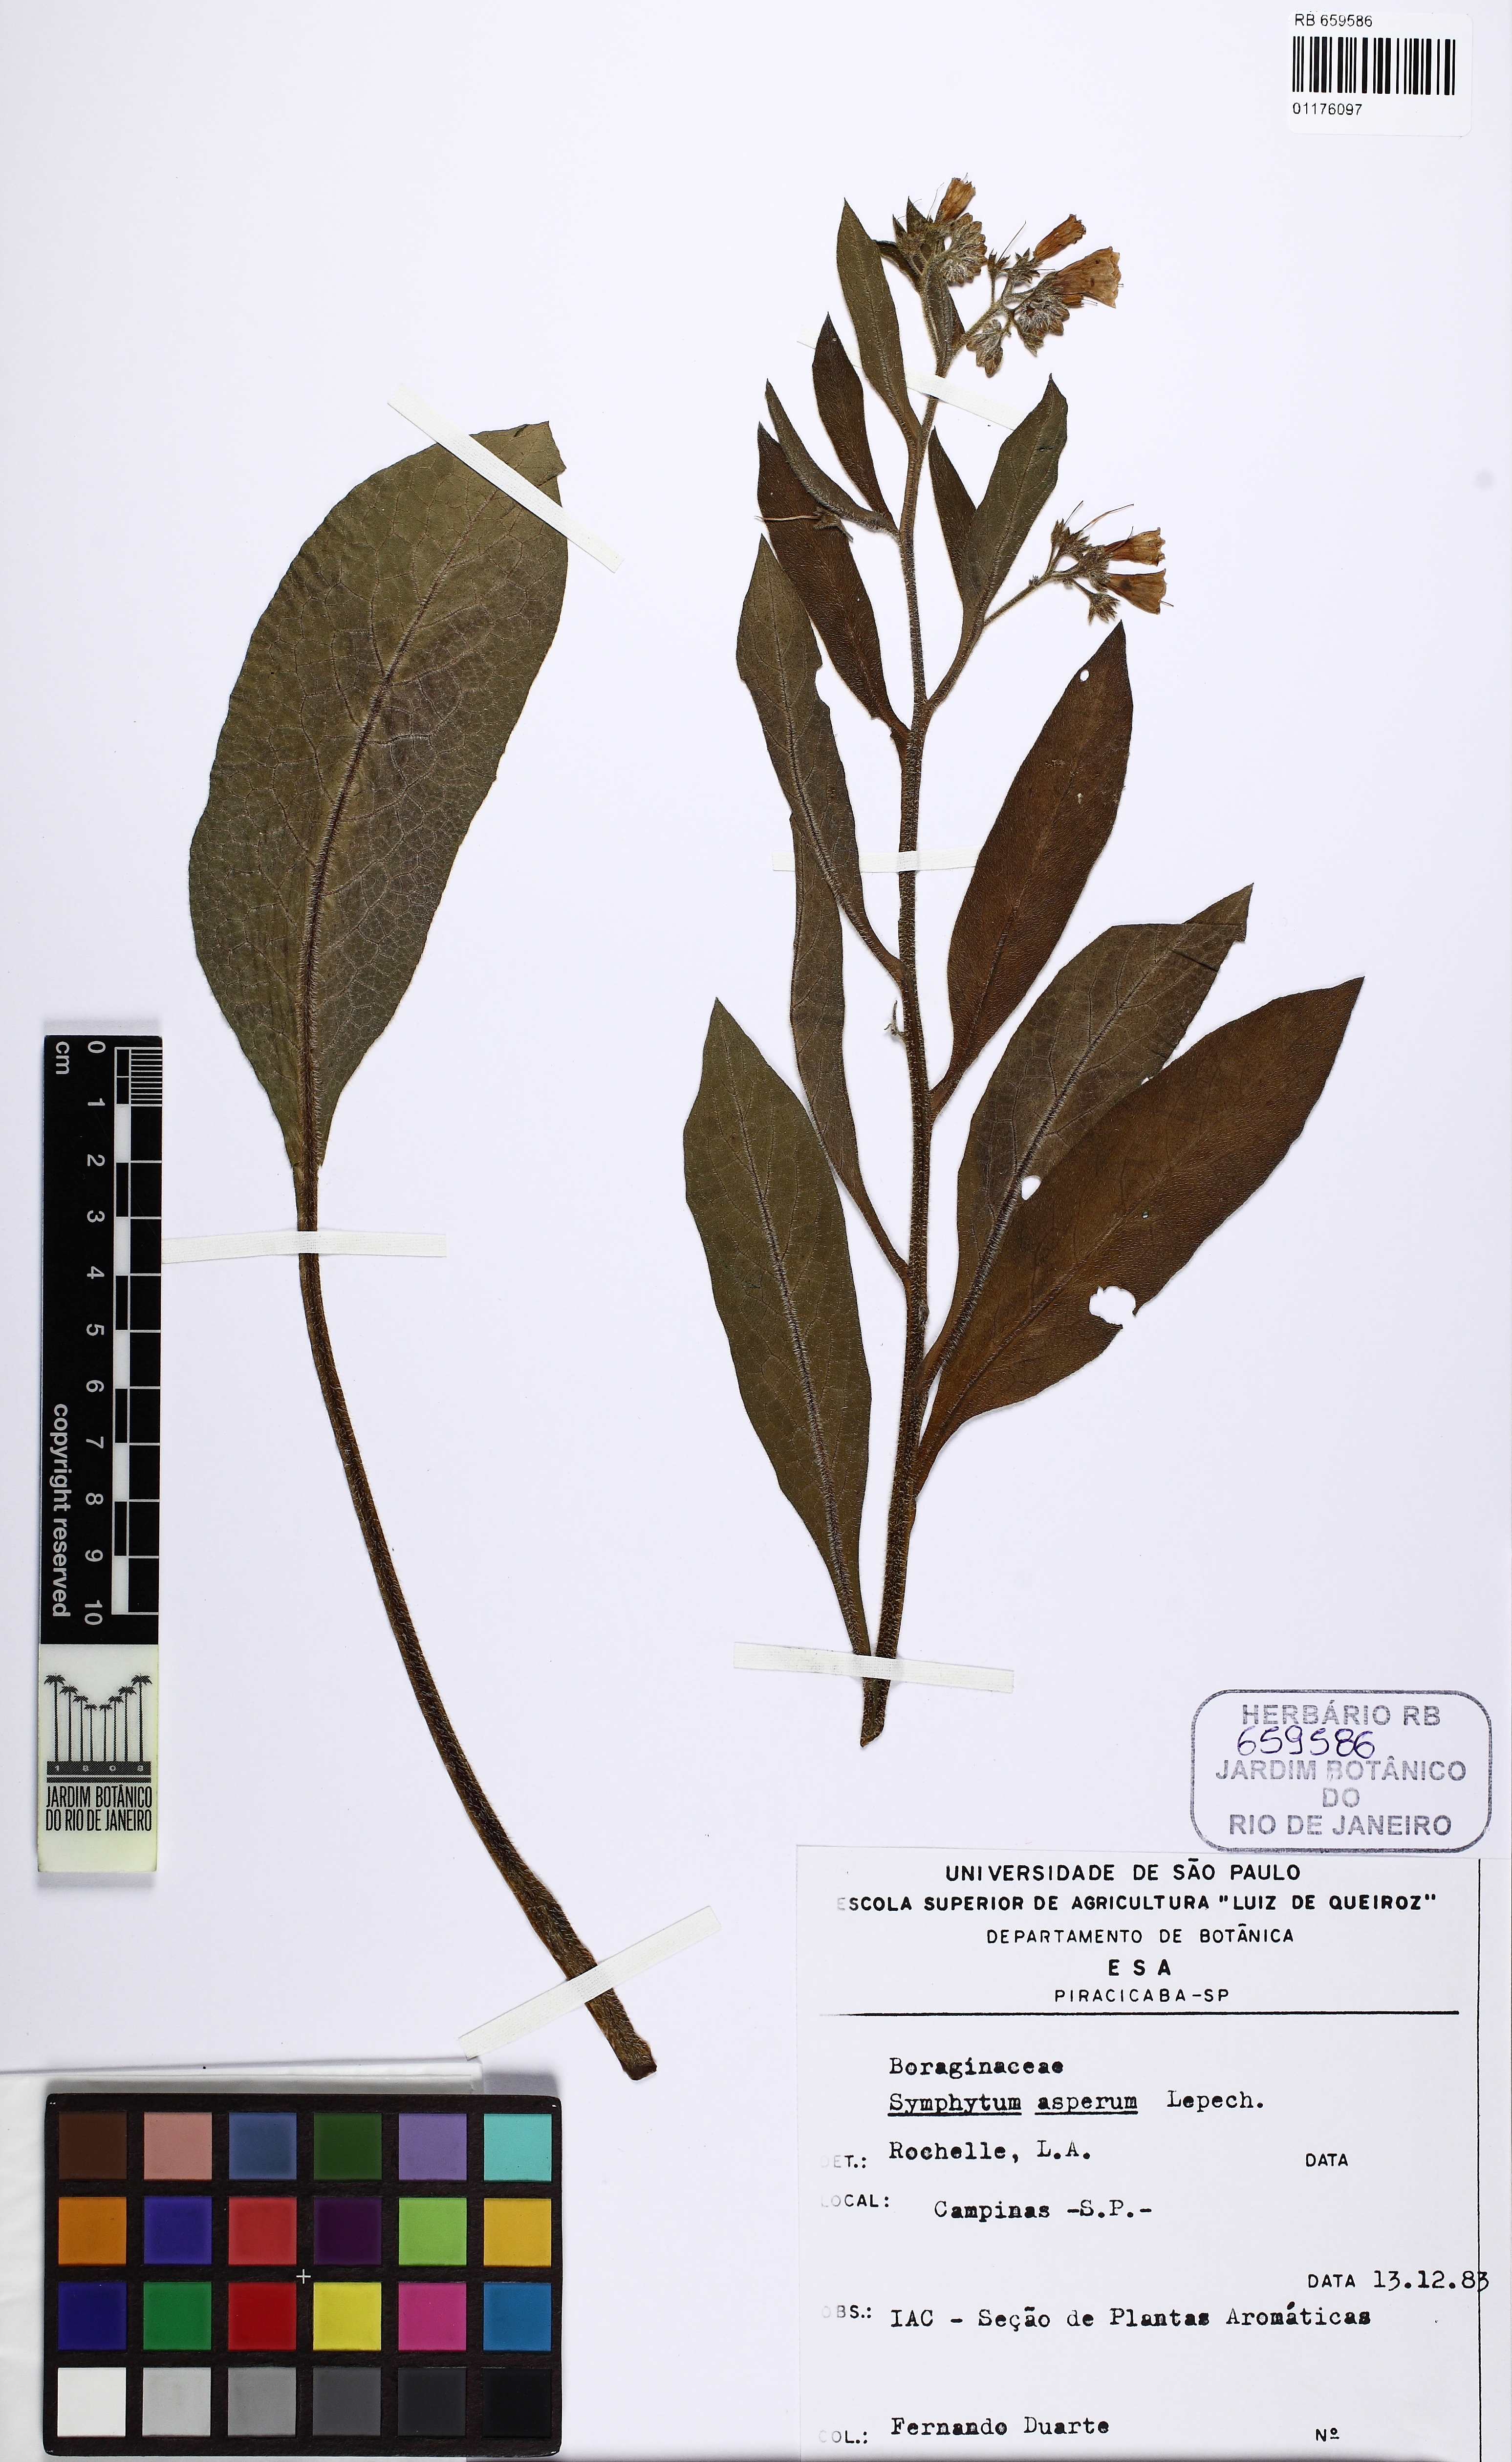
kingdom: Plantae
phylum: Tracheophyta
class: Magnoliopsida
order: Boraginales
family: Boraginaceae
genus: Symphytum
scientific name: Symphytum asperum
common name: Prickly comfrey
